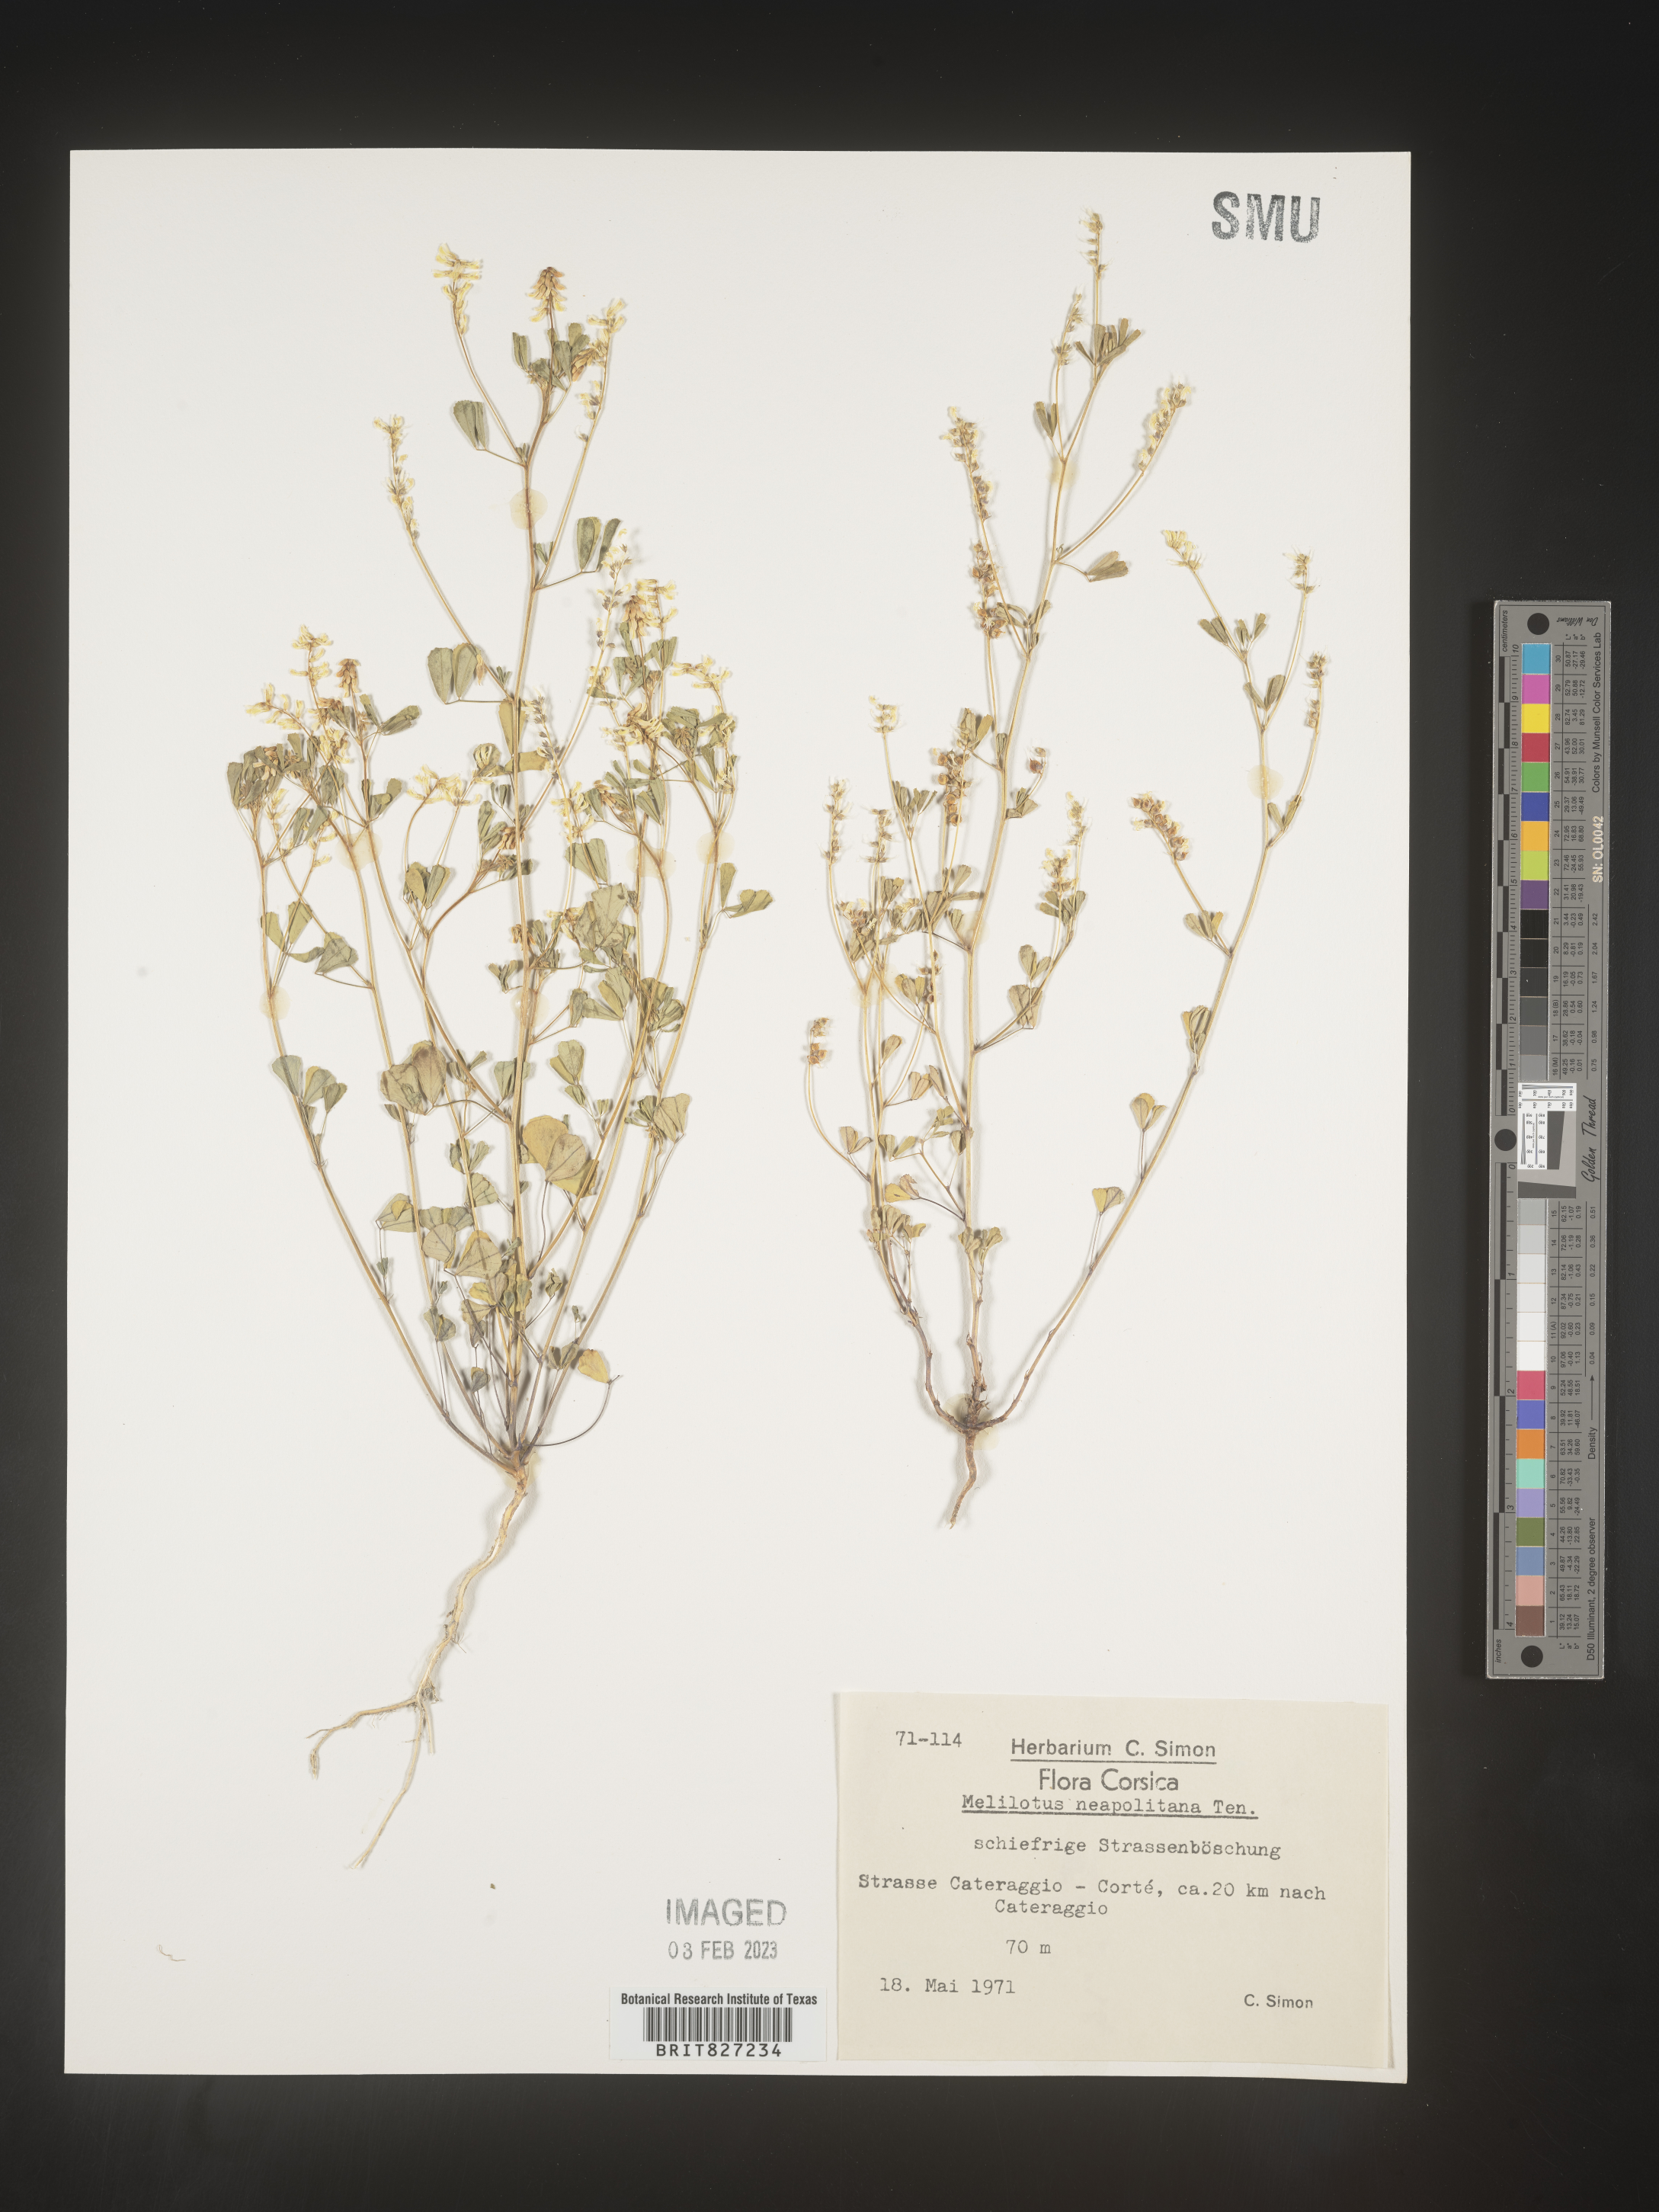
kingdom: Plantae
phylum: Tracheophyta
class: Magnoliopsida
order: Fabales
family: Fabaceae
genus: Melilotus
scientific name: Melilotus
